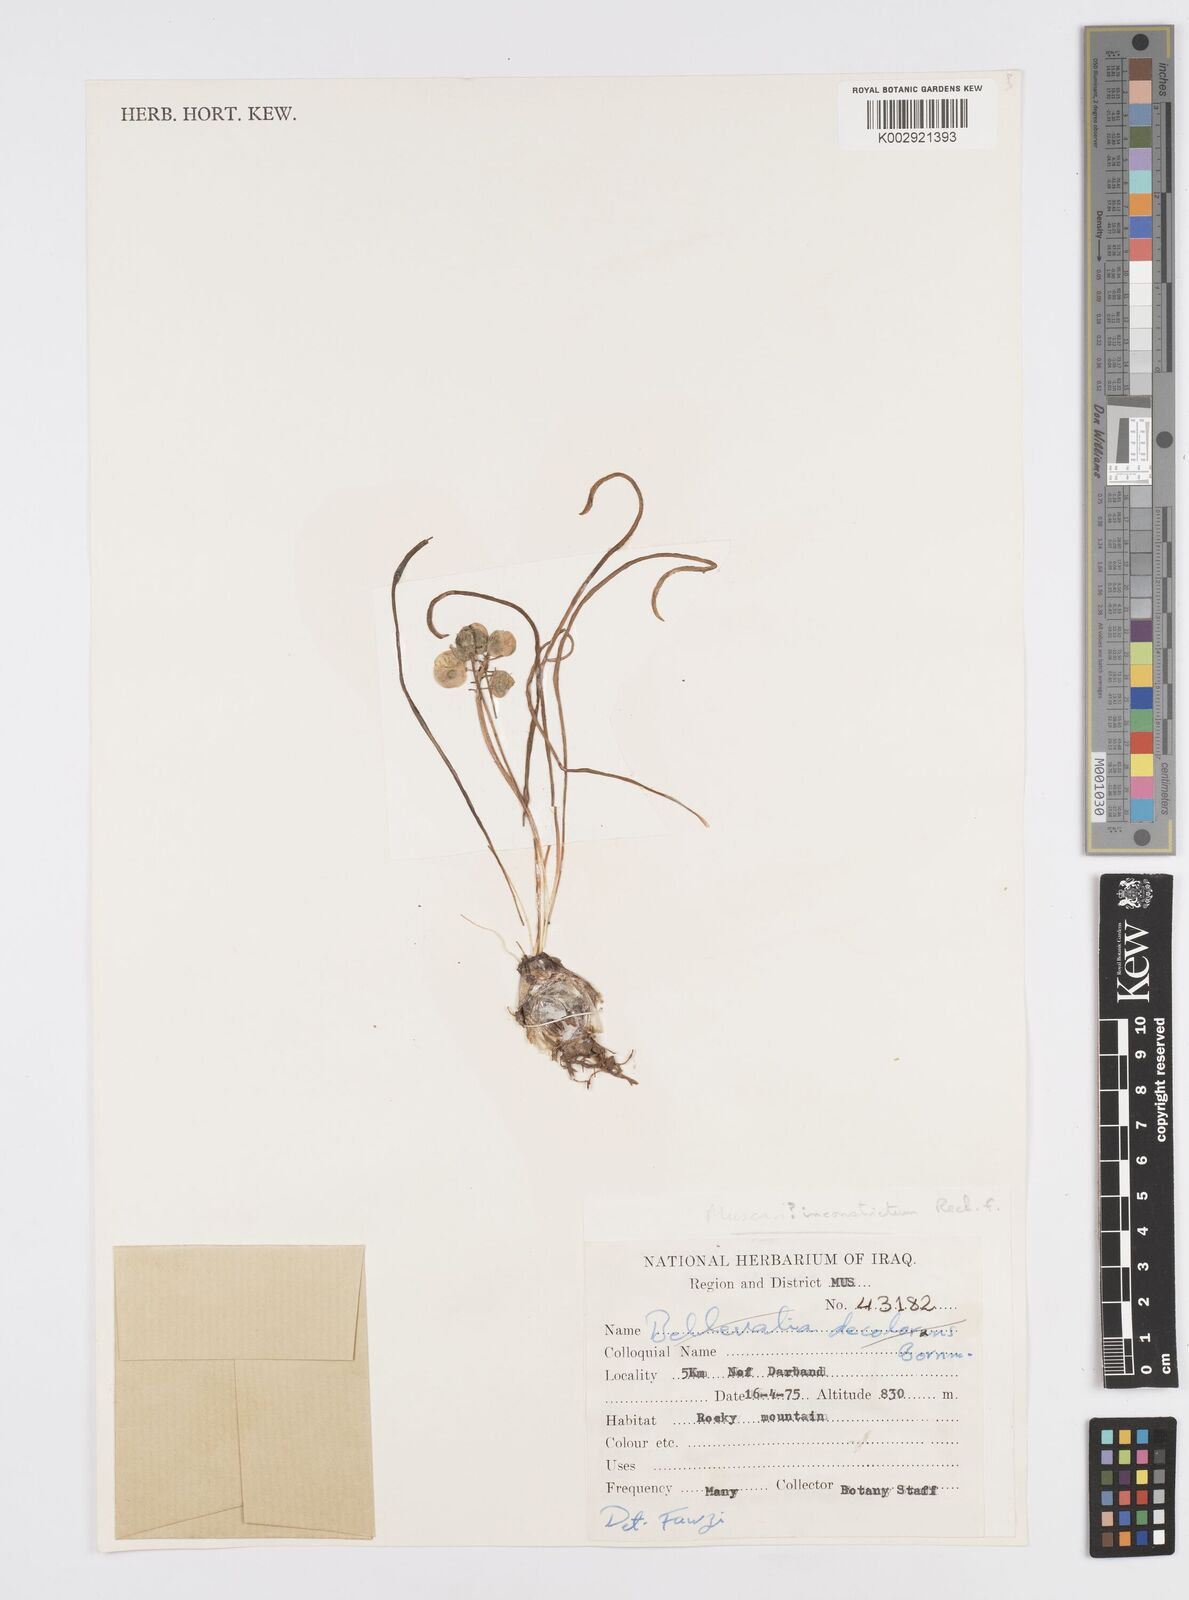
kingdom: Plantae
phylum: Tracheophyta
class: Liliopsida
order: Asparagales
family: Asparagaceae
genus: Muscari
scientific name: Muscari inconstrictum
